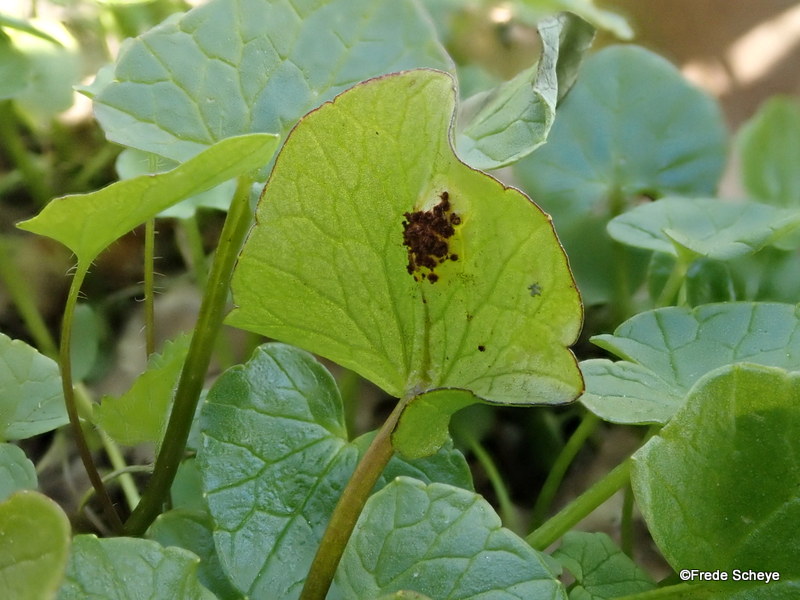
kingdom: Fungi
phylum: Basidiomycota
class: Pucciniomycetes
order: Pucciniales
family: Pucciniaceae
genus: Uromyces
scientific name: Uromyces ficariae
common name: vorterod-encellerust
